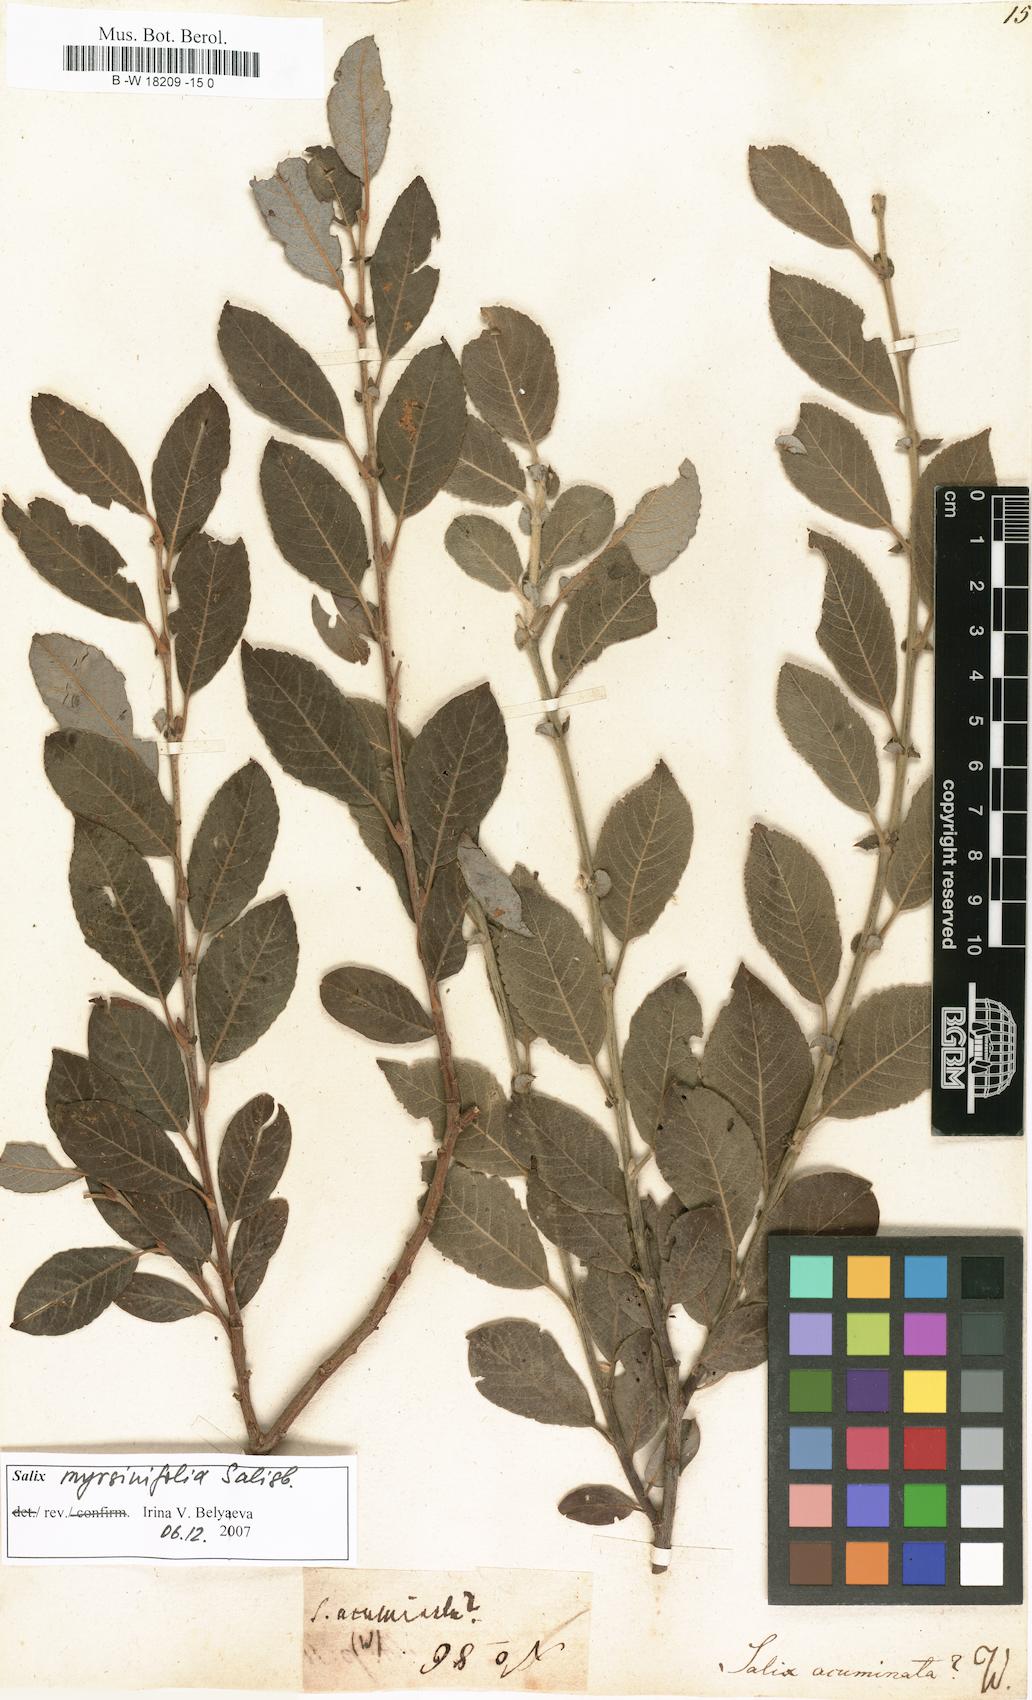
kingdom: Plantae
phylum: Tracheophyta
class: Magnoliopsida
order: Malpighiales
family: Salicaceae
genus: Salix
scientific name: Salix
